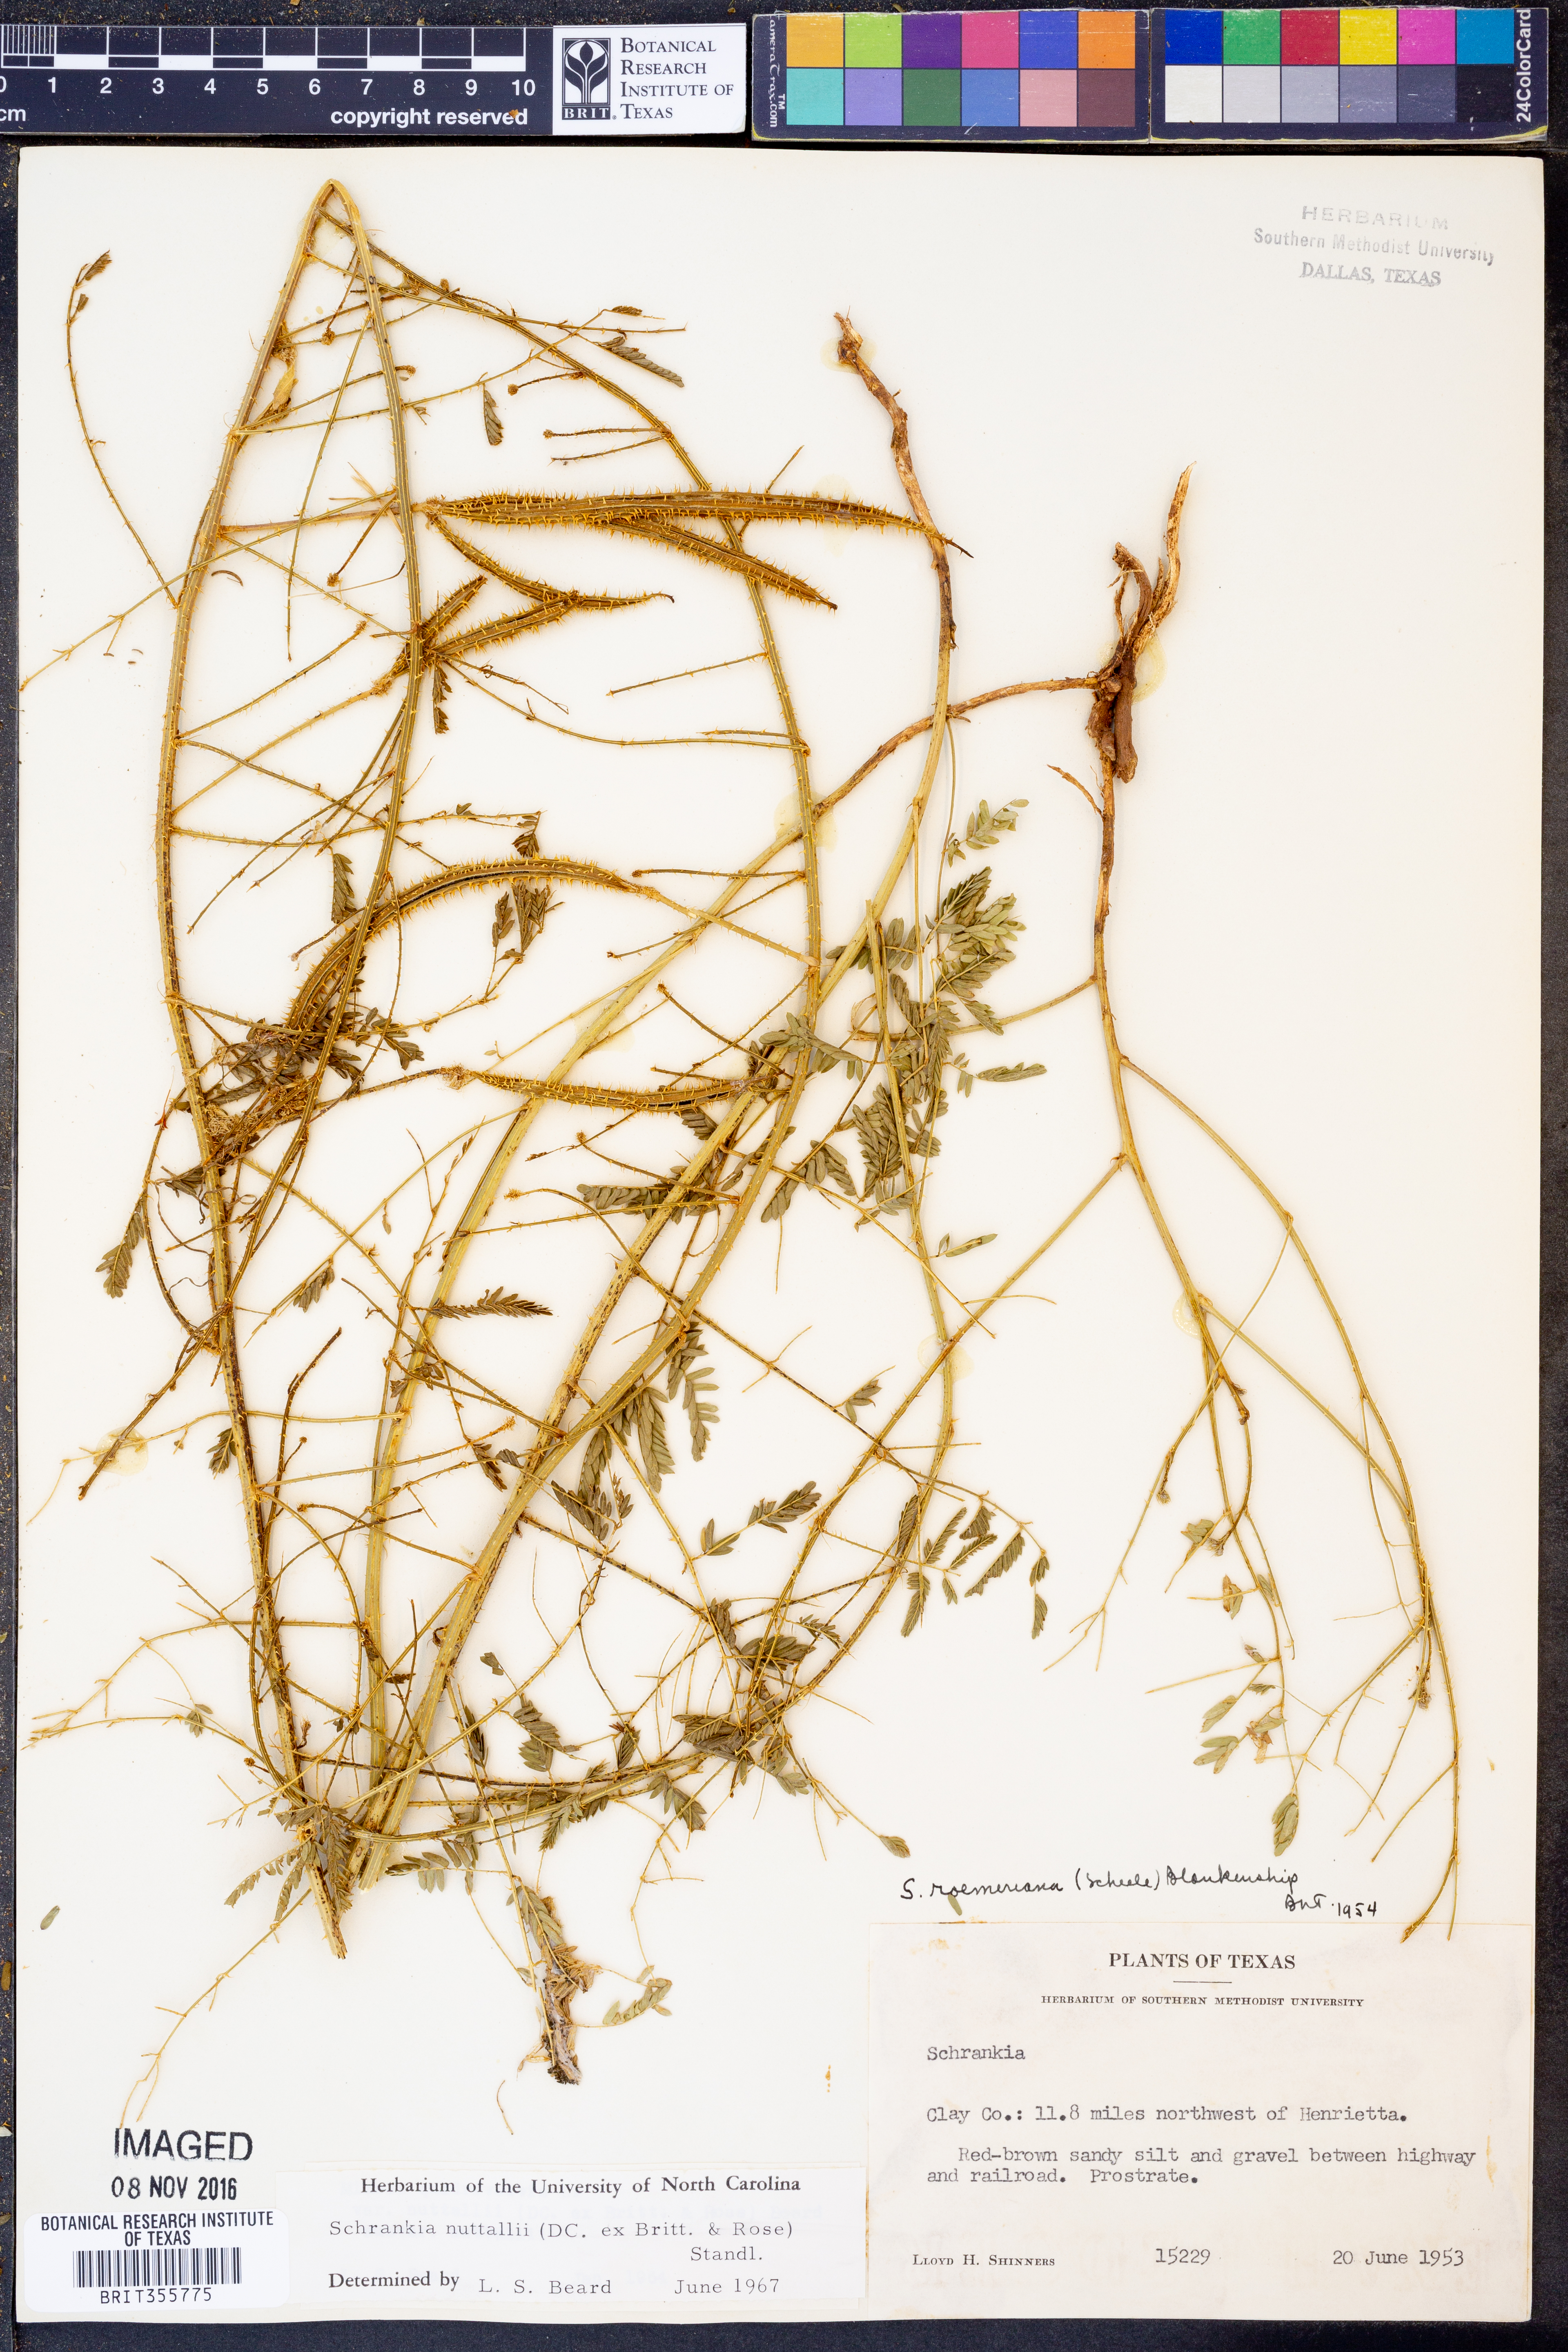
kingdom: Plantae
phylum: Tracheophyta
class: Magnoliopsida
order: Fabales
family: Fabaceae
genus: Mimosa
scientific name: Mimosa quadrivalvis
